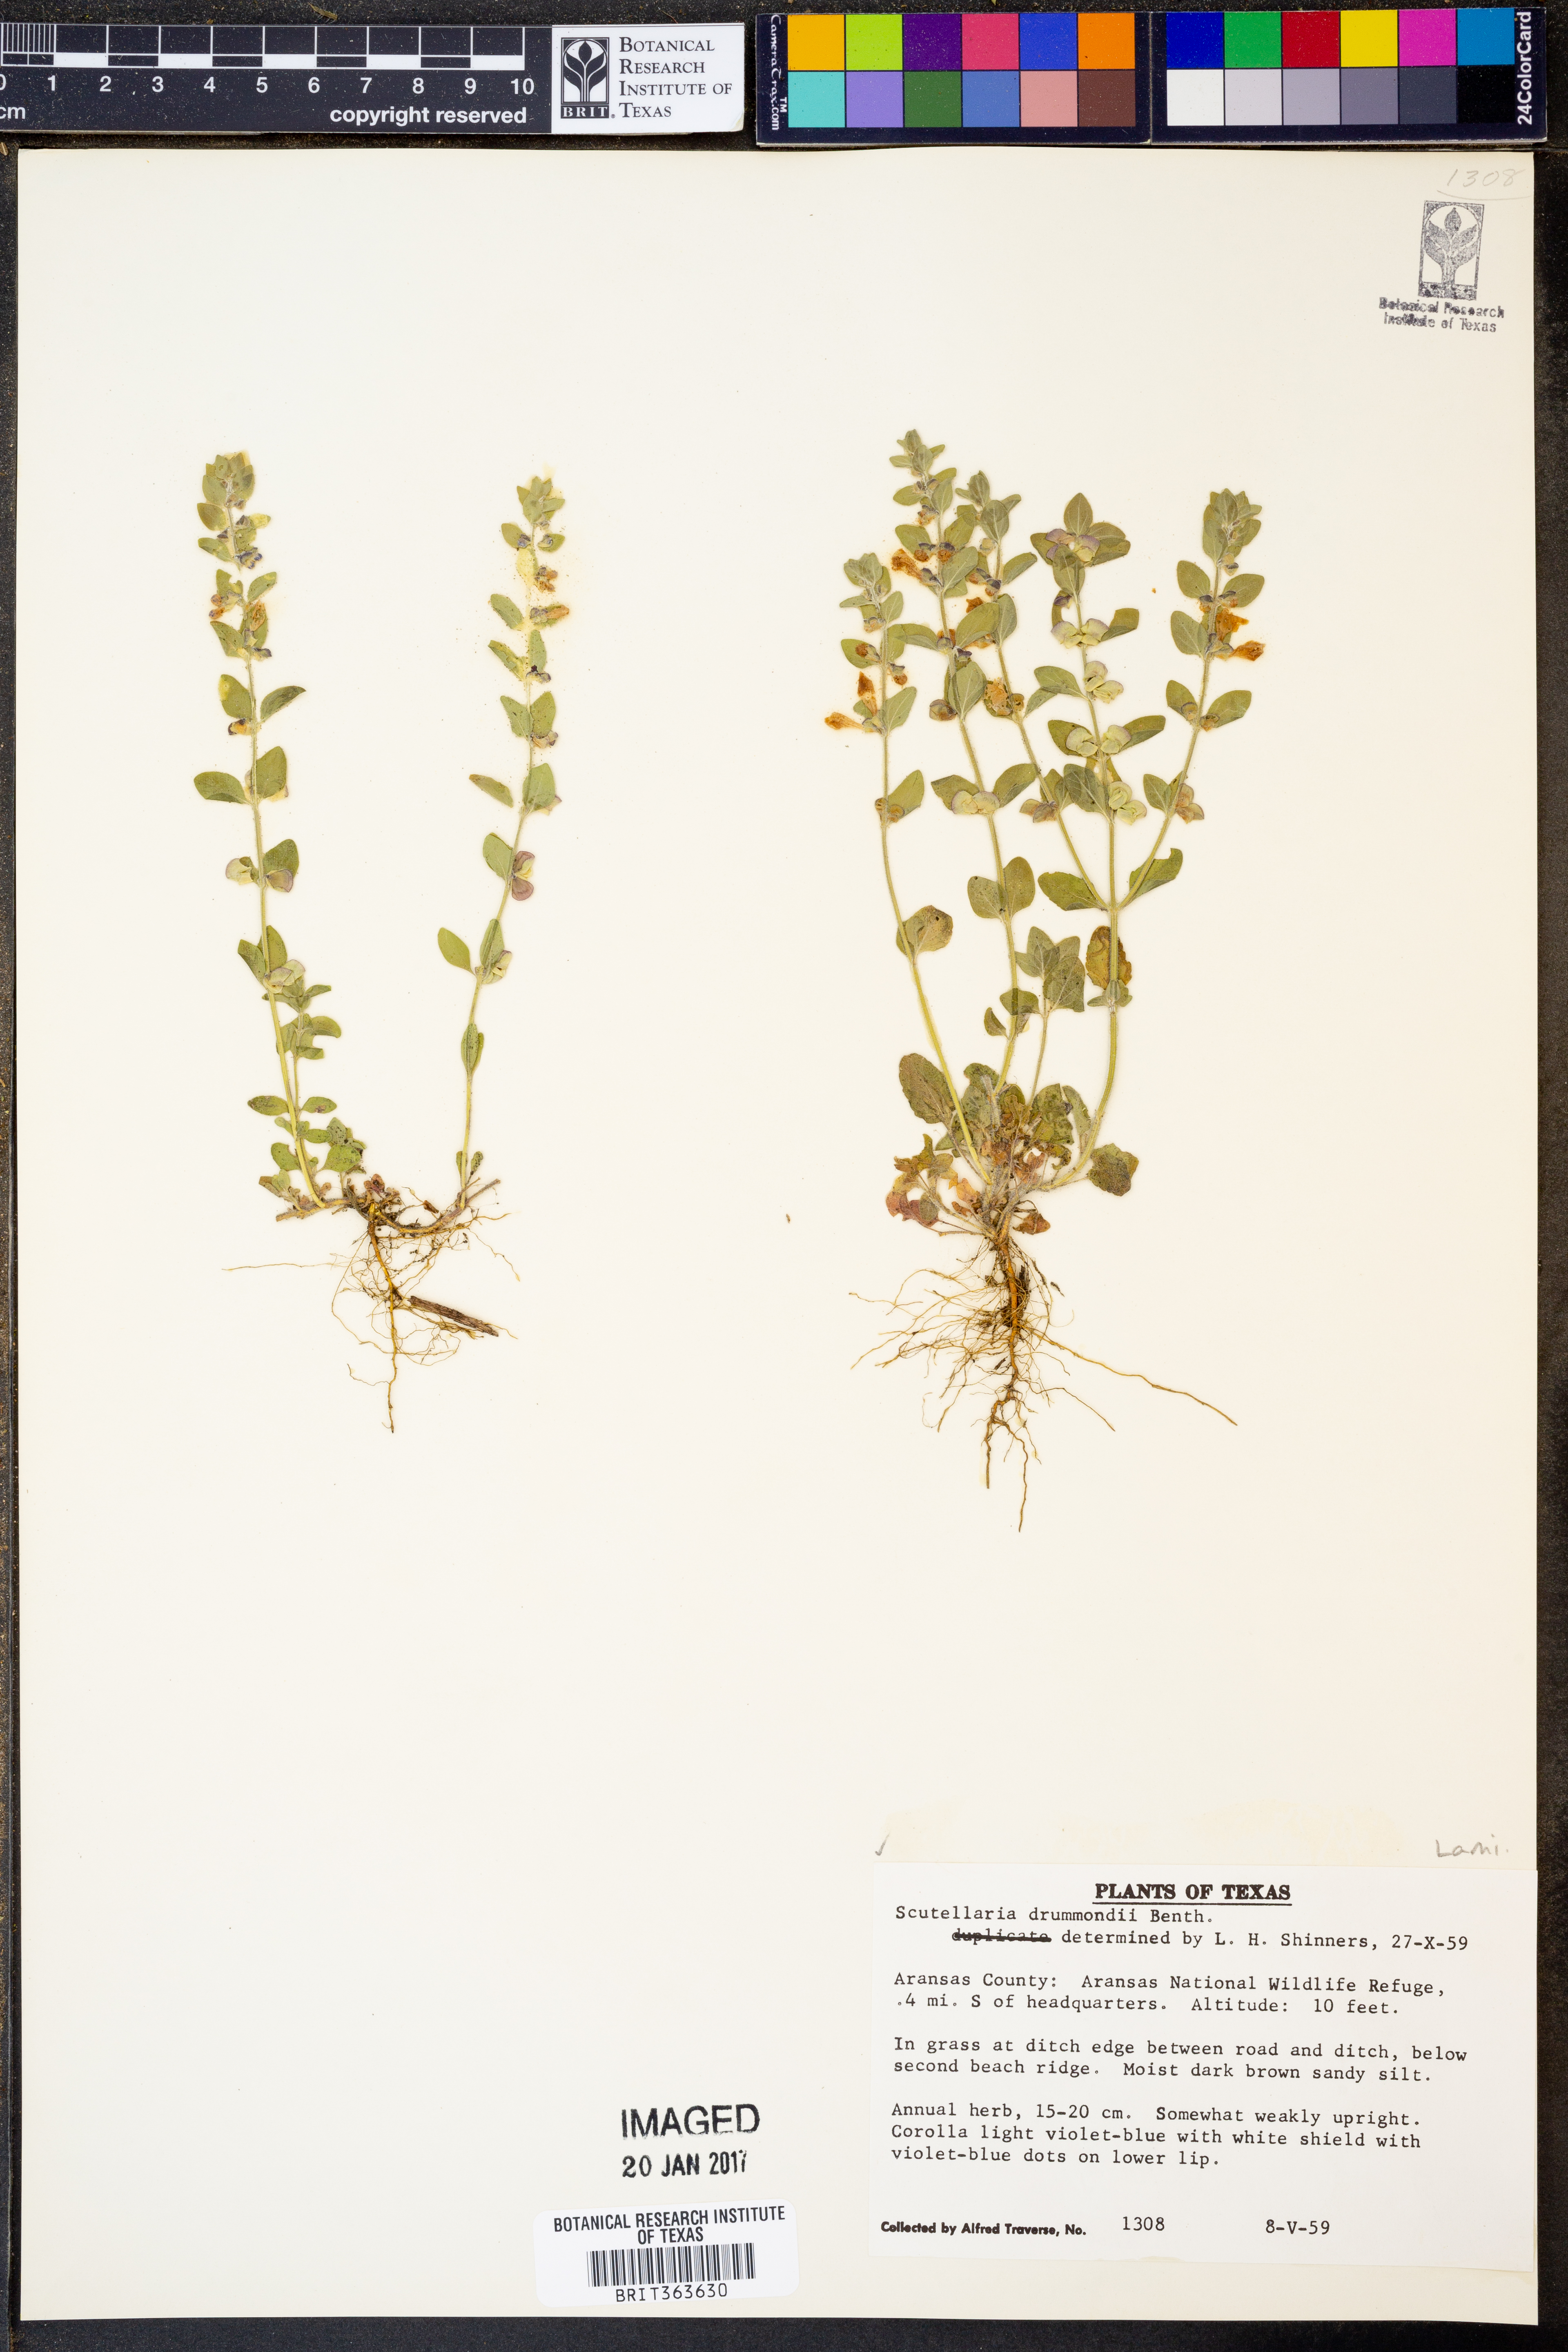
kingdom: Plantae
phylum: Tracheophyta
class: Magnoliopsida
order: Lamiales
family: Lamiaceae
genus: Scutellaria
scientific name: Scutellaria drummondii
